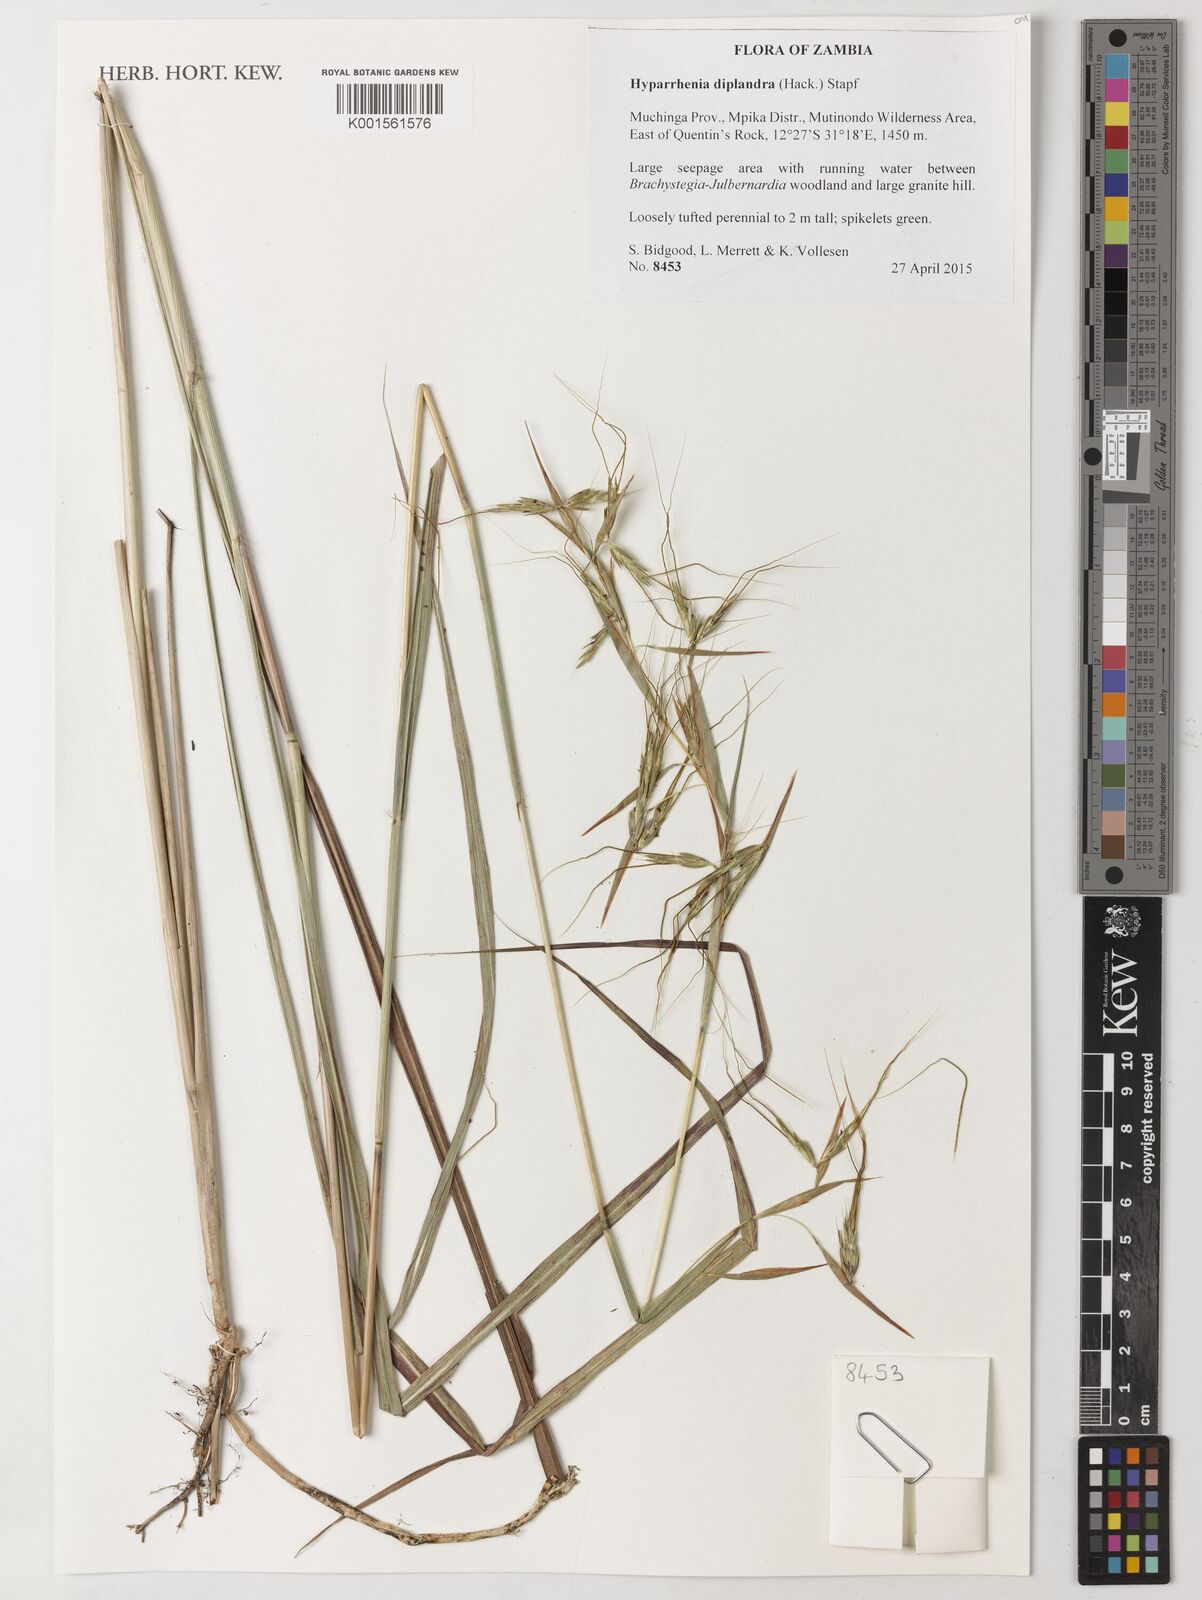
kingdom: Plantae
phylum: Tracheophyta
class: Liliopsida
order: Poales
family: Poaceae
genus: Hyparrhenia
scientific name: Hyparrhenia diplandra
